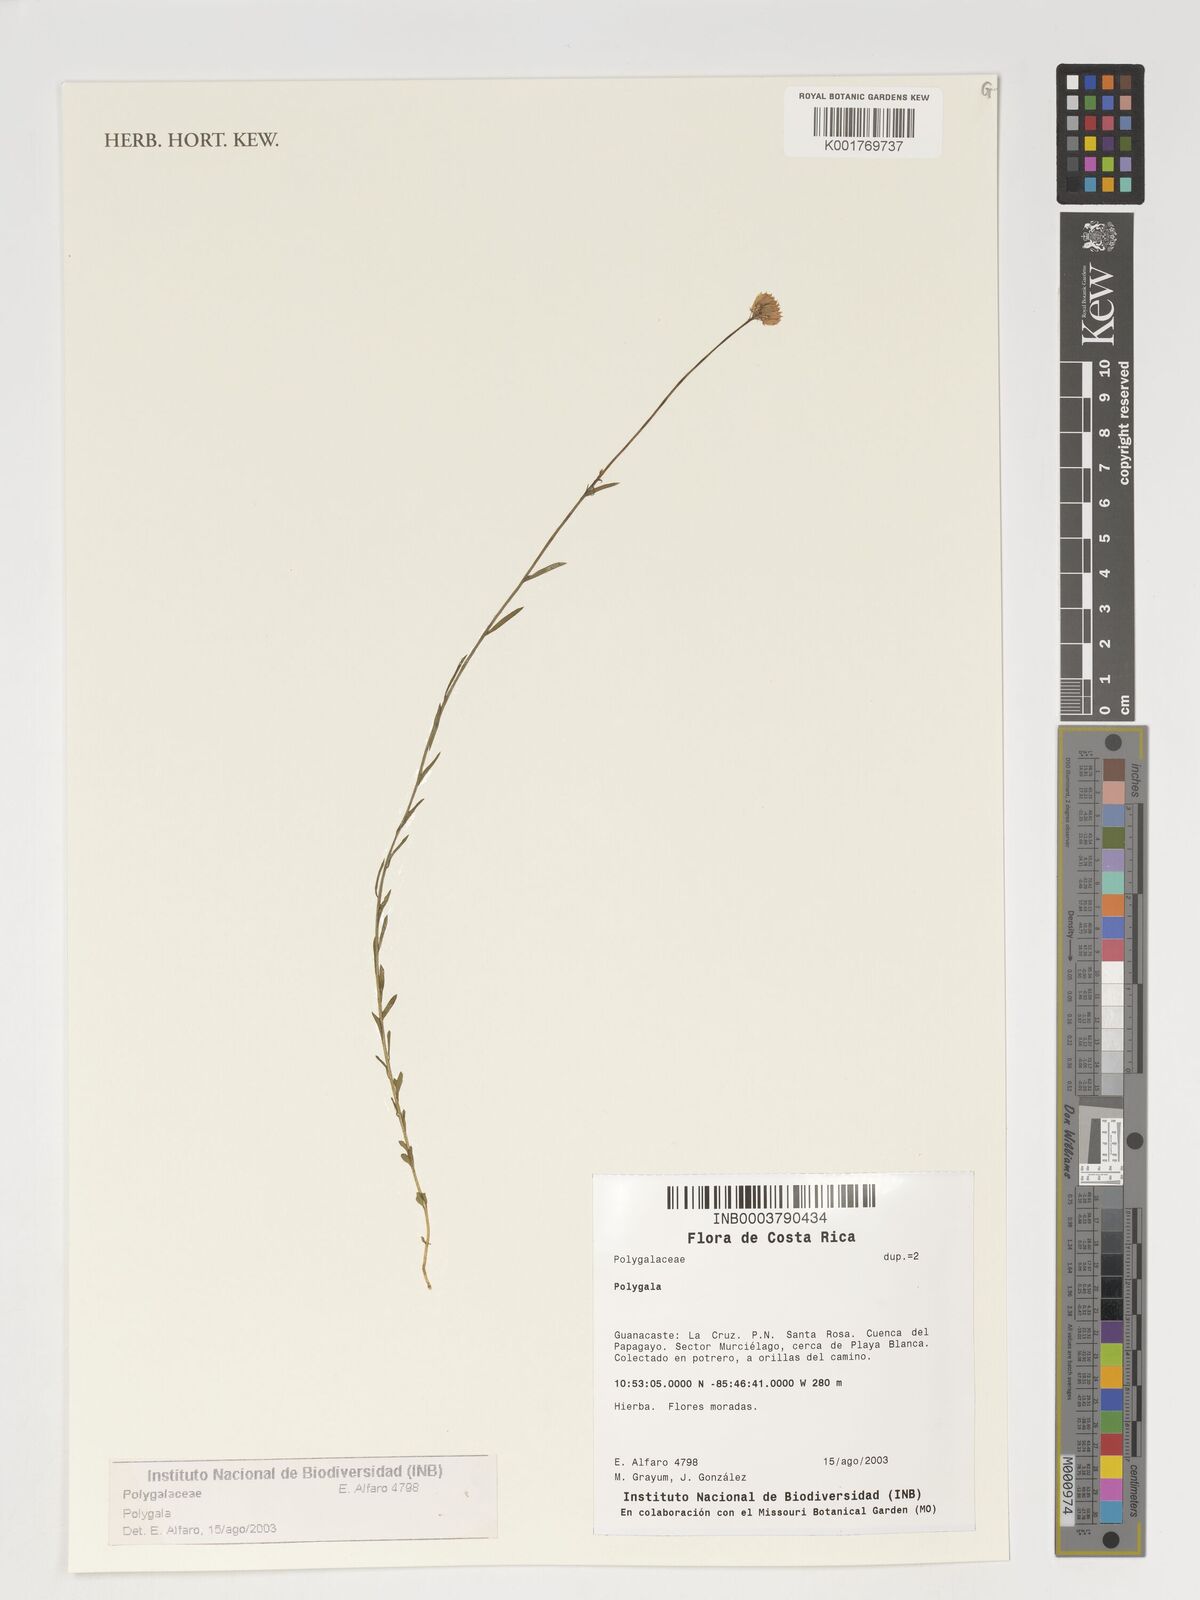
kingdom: Plantae
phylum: Tracheophyta
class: Magnoliopsida
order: Fabales
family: Polygalaceae
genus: Polygala
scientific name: Polygala
